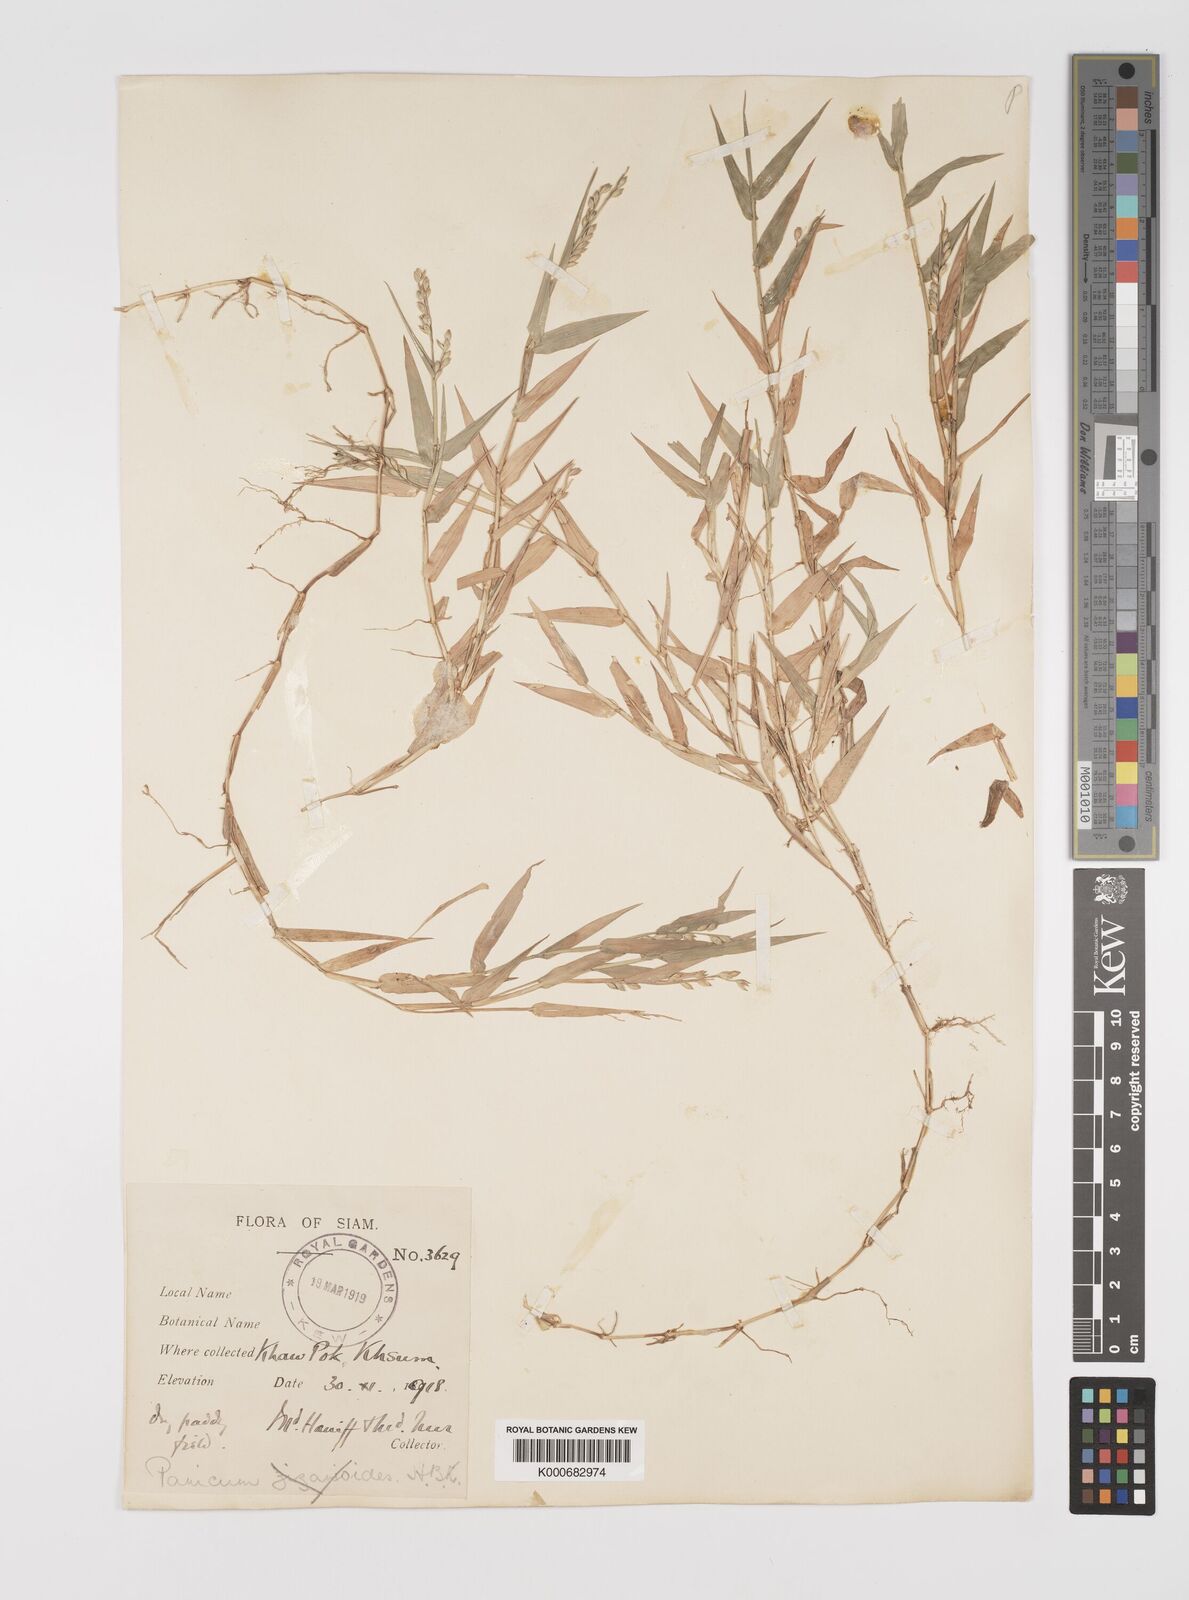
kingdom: Plantae
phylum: Tracheophyta
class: Liliopsida
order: Poales
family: Poaceae
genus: Acroceras
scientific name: Acroceras munroanum
